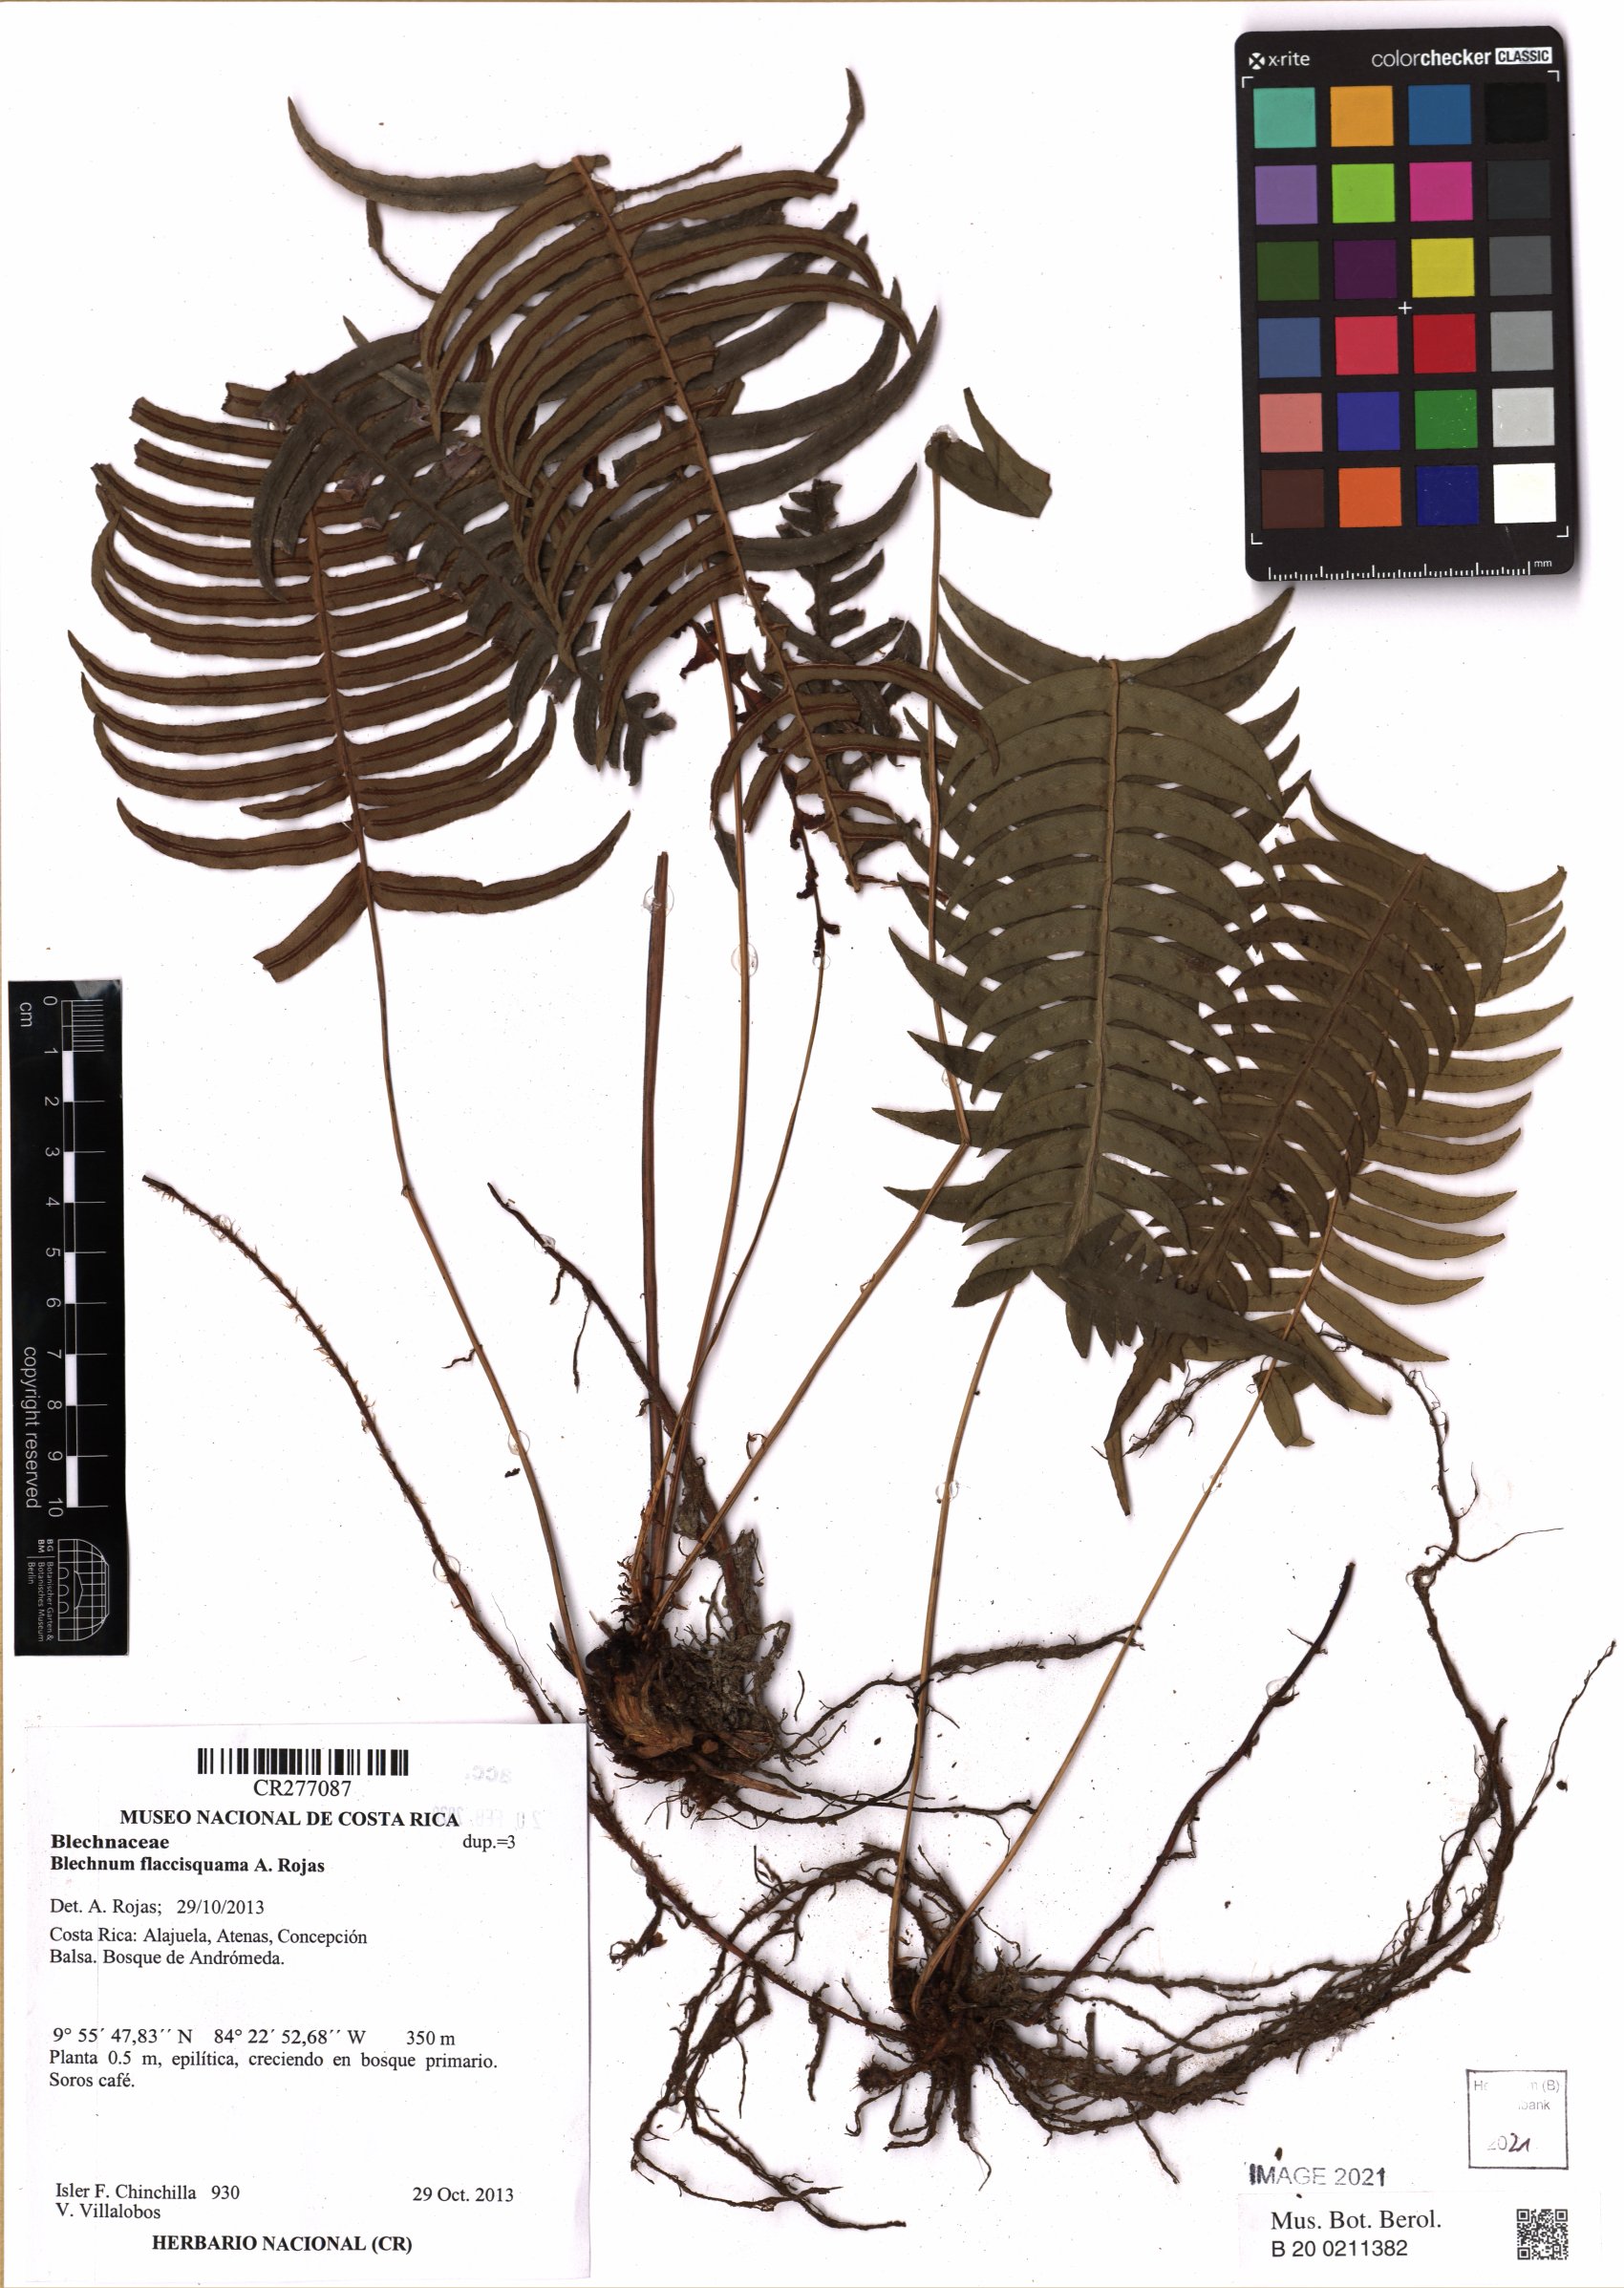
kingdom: Plantae
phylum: Tracheophyta
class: Polypodiopsida
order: Polypodiales
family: Blechnaceae
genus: Blechnum
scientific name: Blechnum
